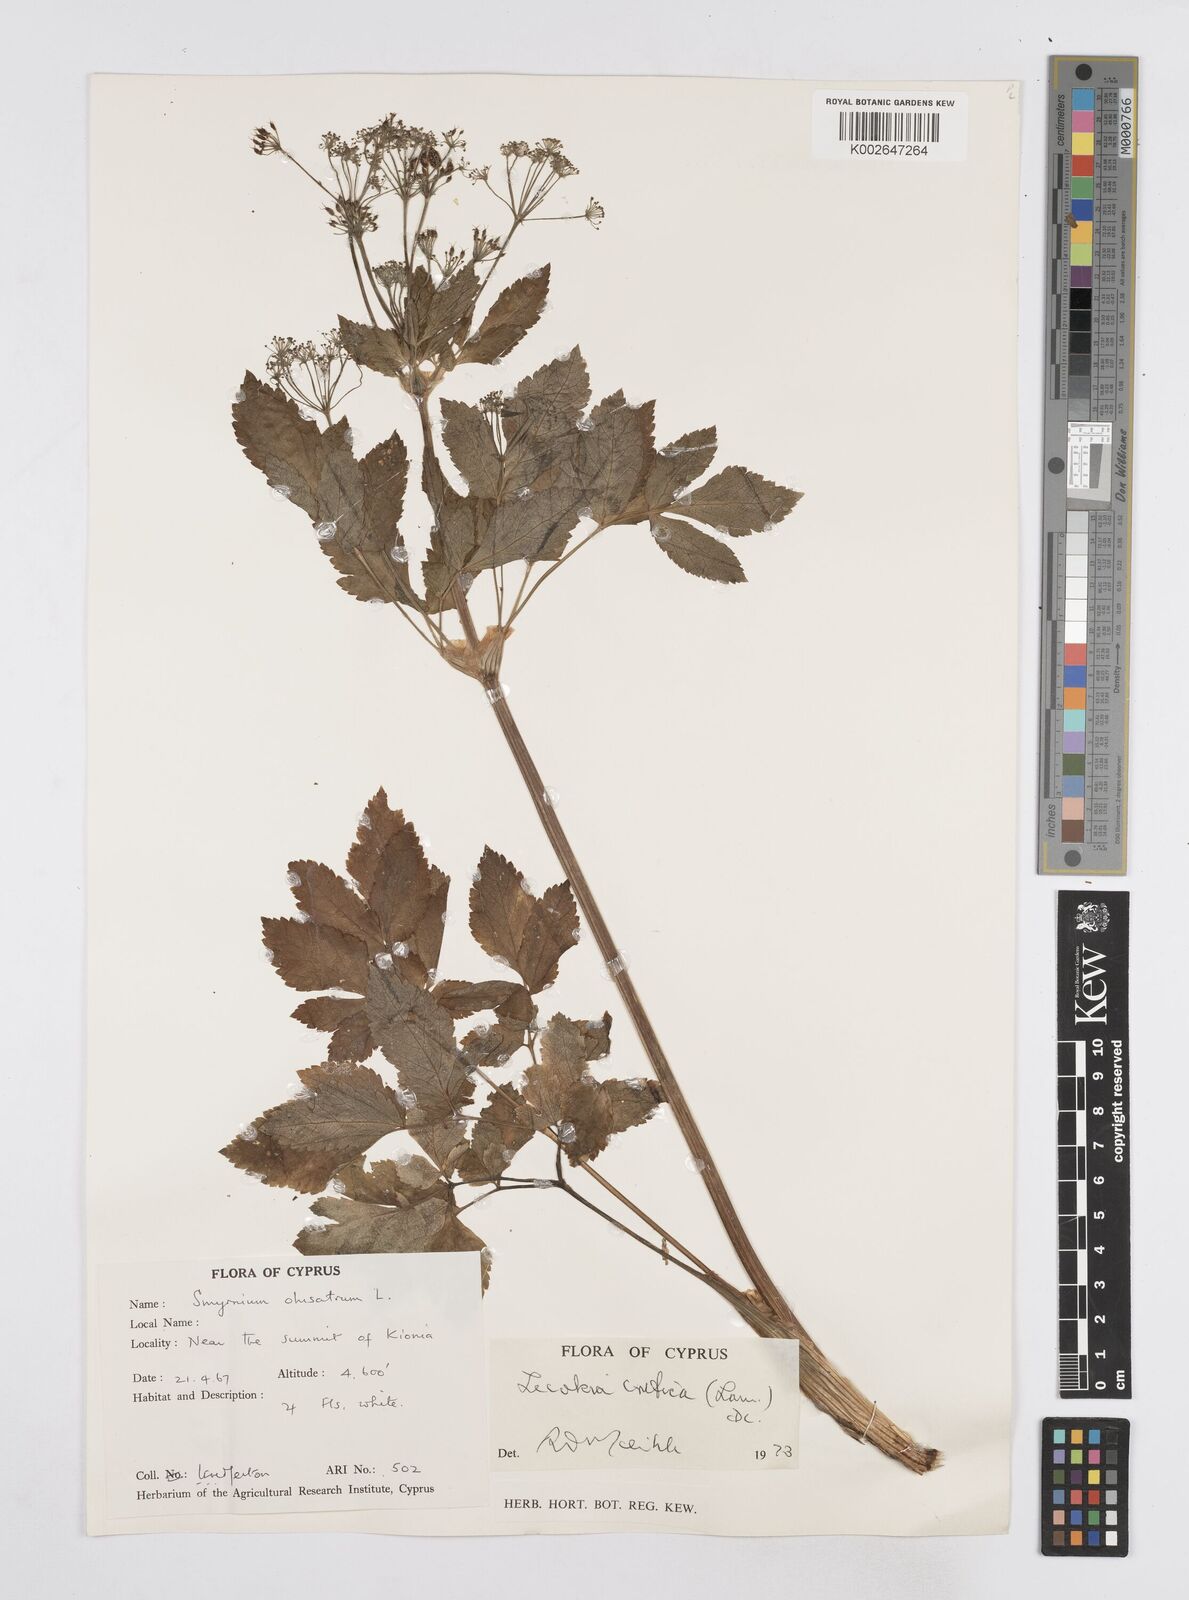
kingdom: Plantae
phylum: Tracheophyta
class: Magnoliopsida
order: Apiales
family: Apiaceae
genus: Lecokia
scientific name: Lecokia cretica
